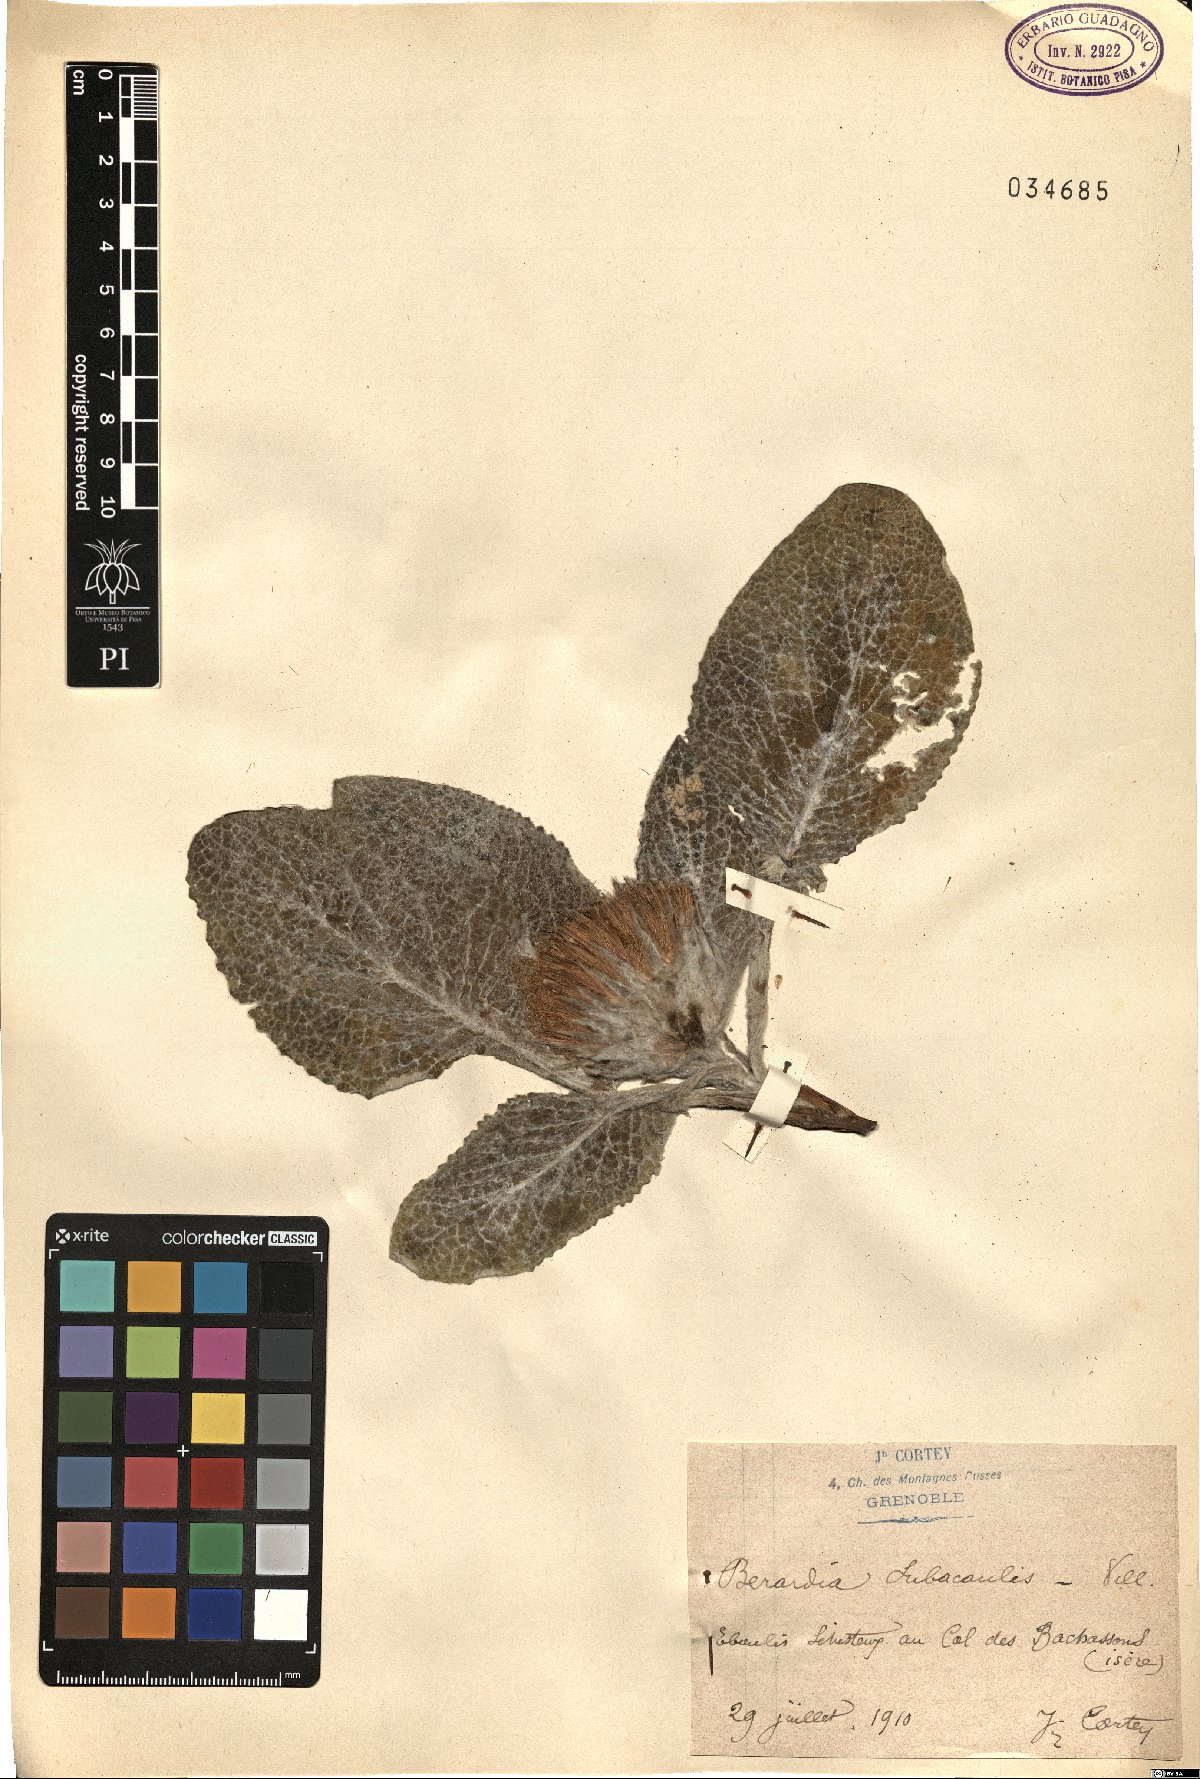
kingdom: Plantae
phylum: Tracheophyta
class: Magnoliopsida
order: Asterales
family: Asteraceae
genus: Berardia
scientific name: Berardia lanuginosa
